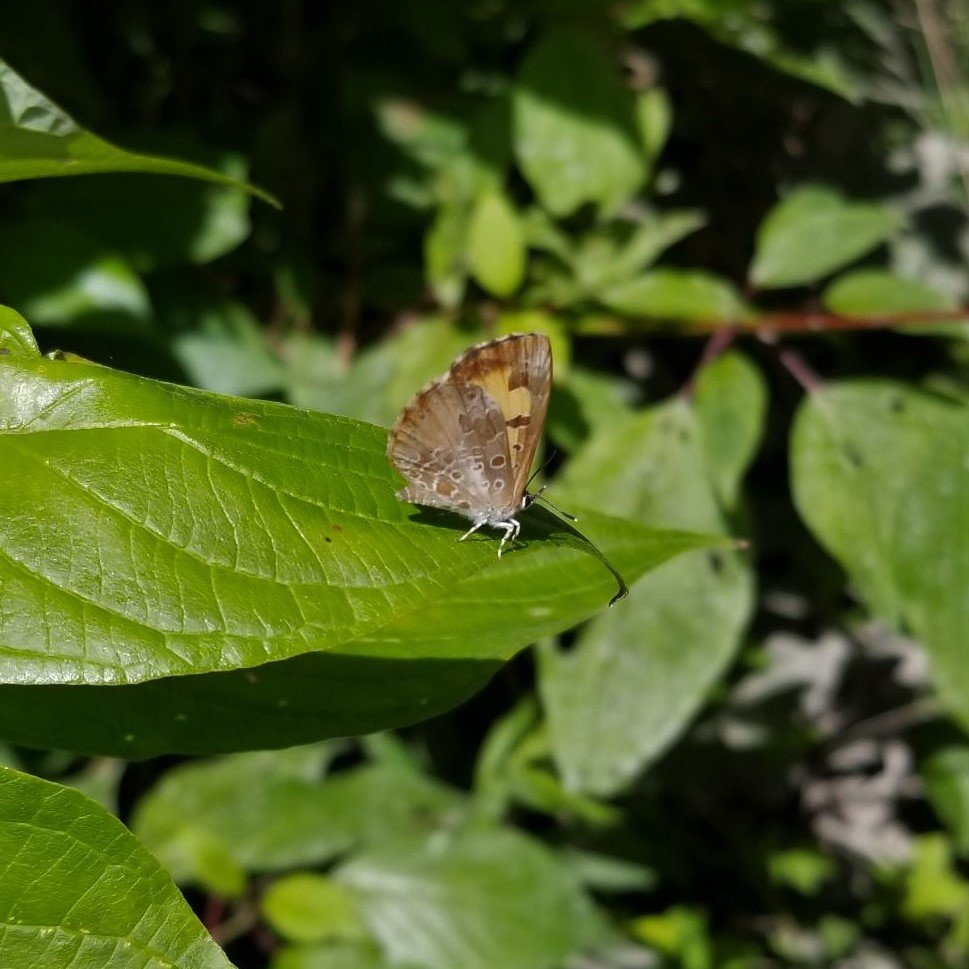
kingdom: Animalia
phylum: Arthropoda
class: Insecta
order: Lepidoptera
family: Lycaenidae
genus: Feniseca
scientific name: Feniseca tarquinius
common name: Harvester
